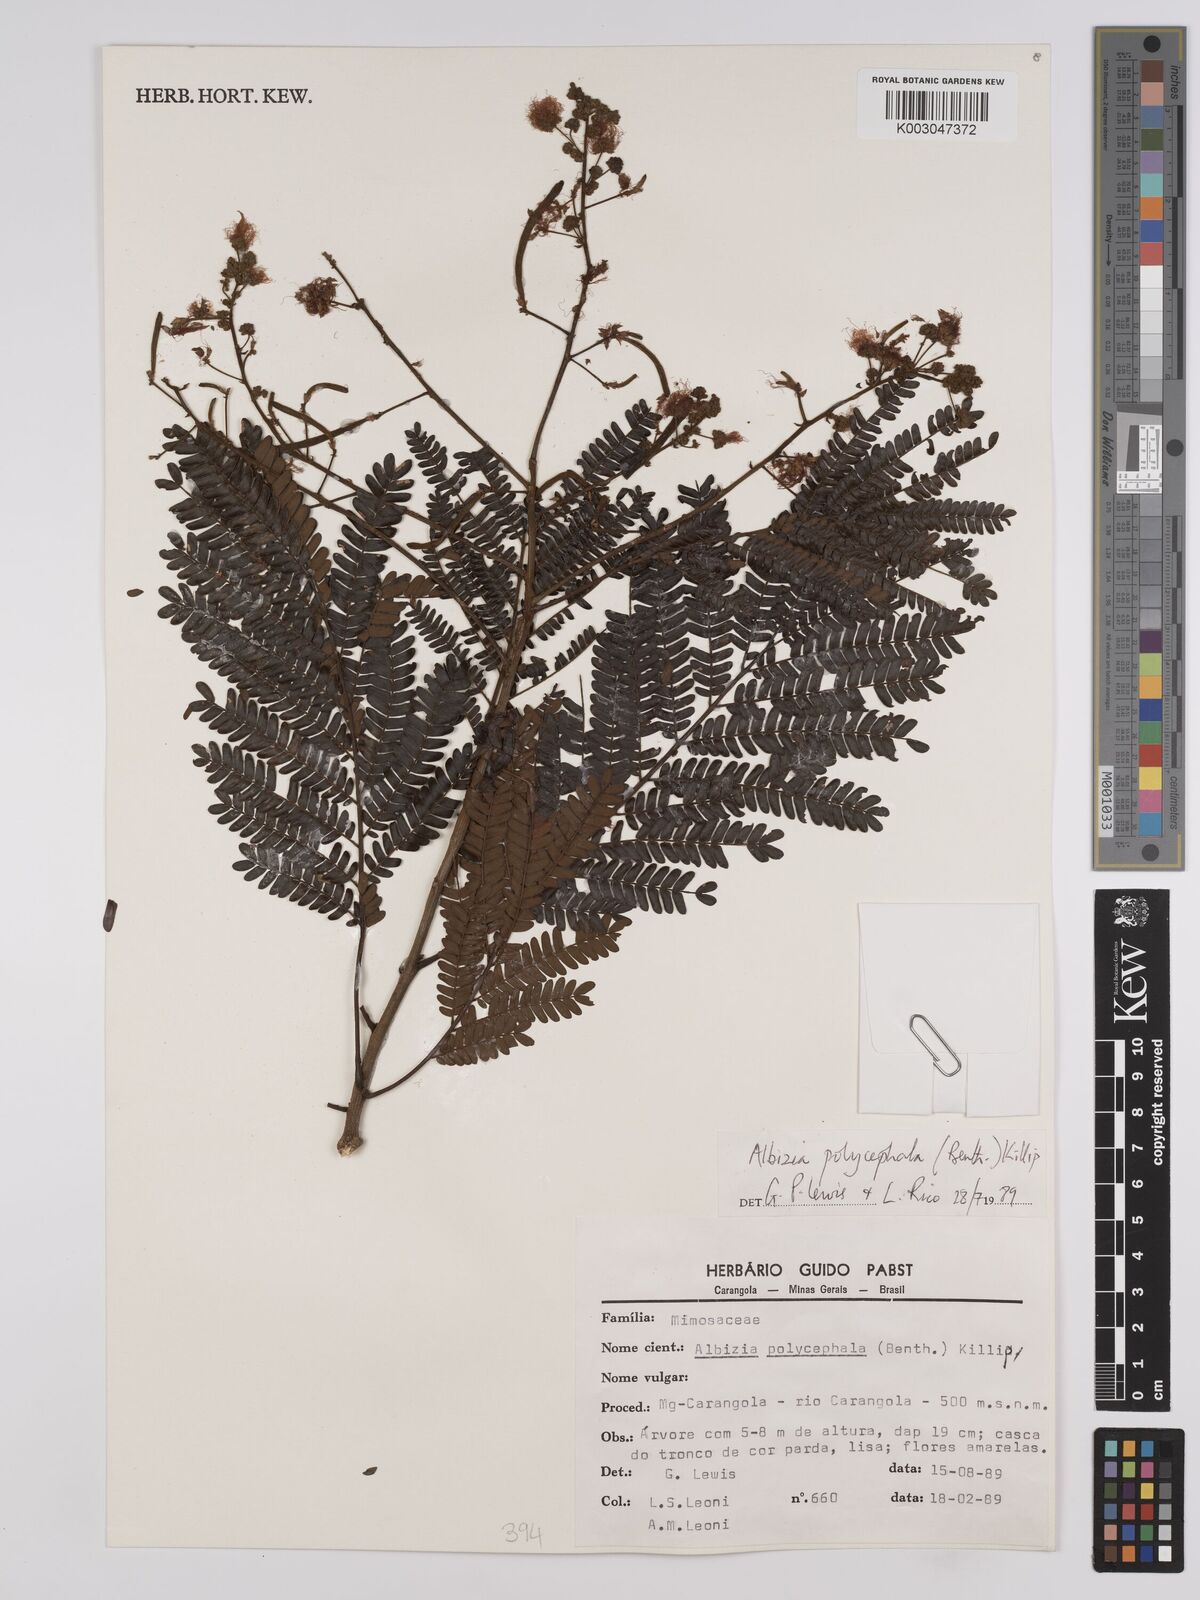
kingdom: Plantae
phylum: Tracheophyta
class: Magnoliopsida
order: Fabales
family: Fabaceae
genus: Albizia
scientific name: Albizia polycephala
